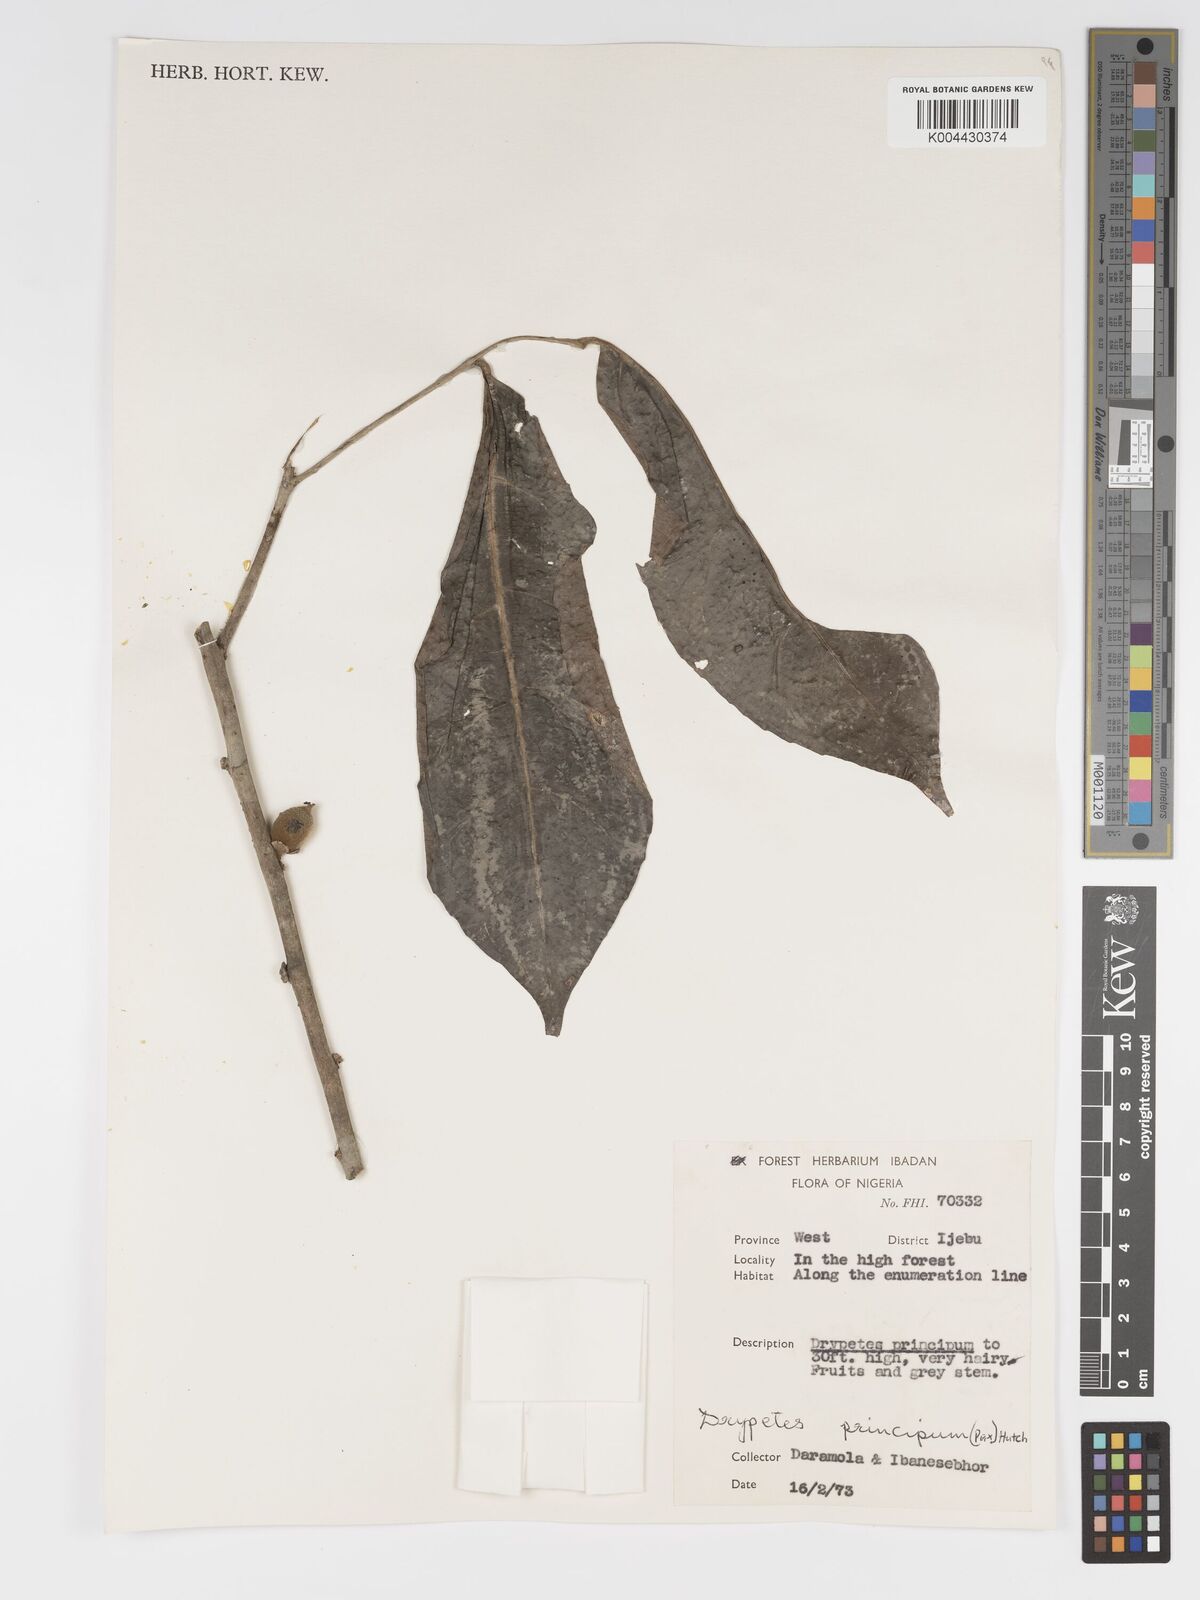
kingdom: Plantae
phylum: Tracheophyta
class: Magnoliopsida
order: Malpighiales
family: Putranjivaceae
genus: Drypetes
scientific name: Drypetes principum
